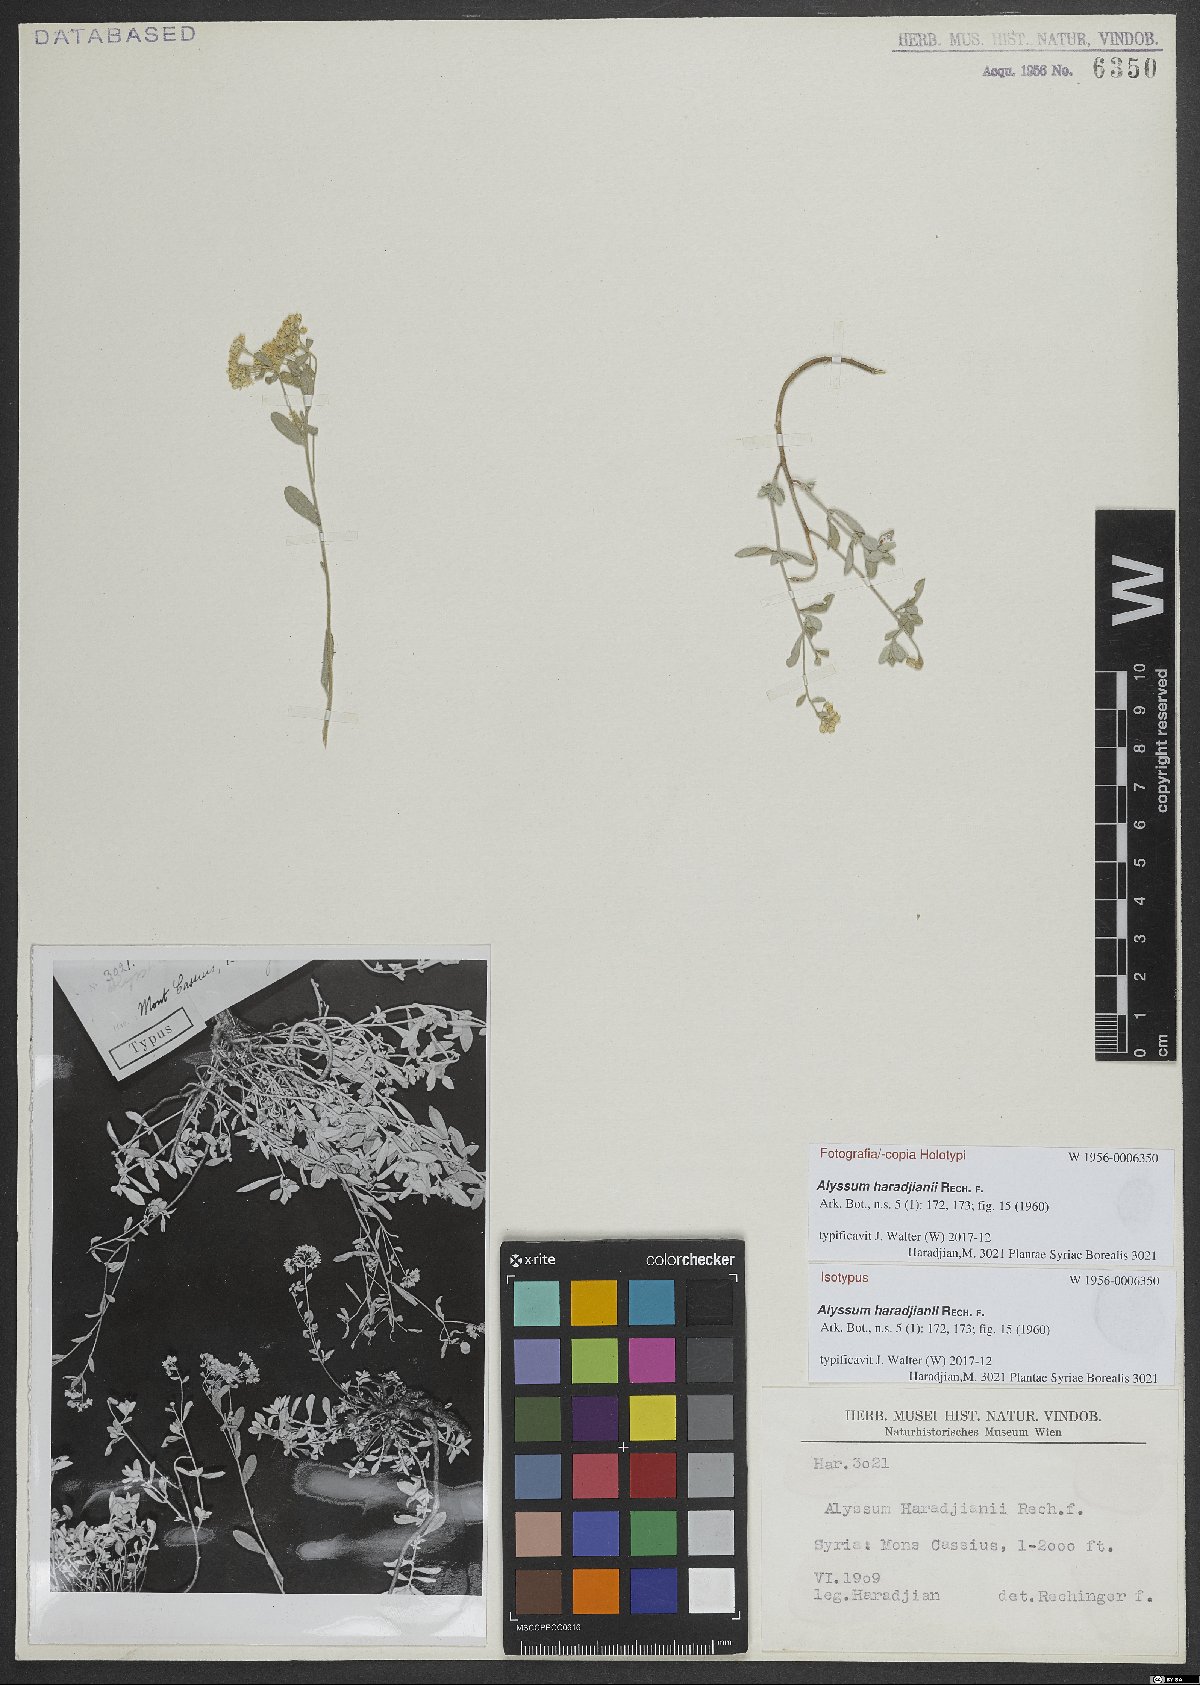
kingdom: Plantae
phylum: Tracheophyta
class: Magnoliopsida
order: Brassicales
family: Brassicaceae
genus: Odontarrhena
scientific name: Odontarrhena haradjianii
